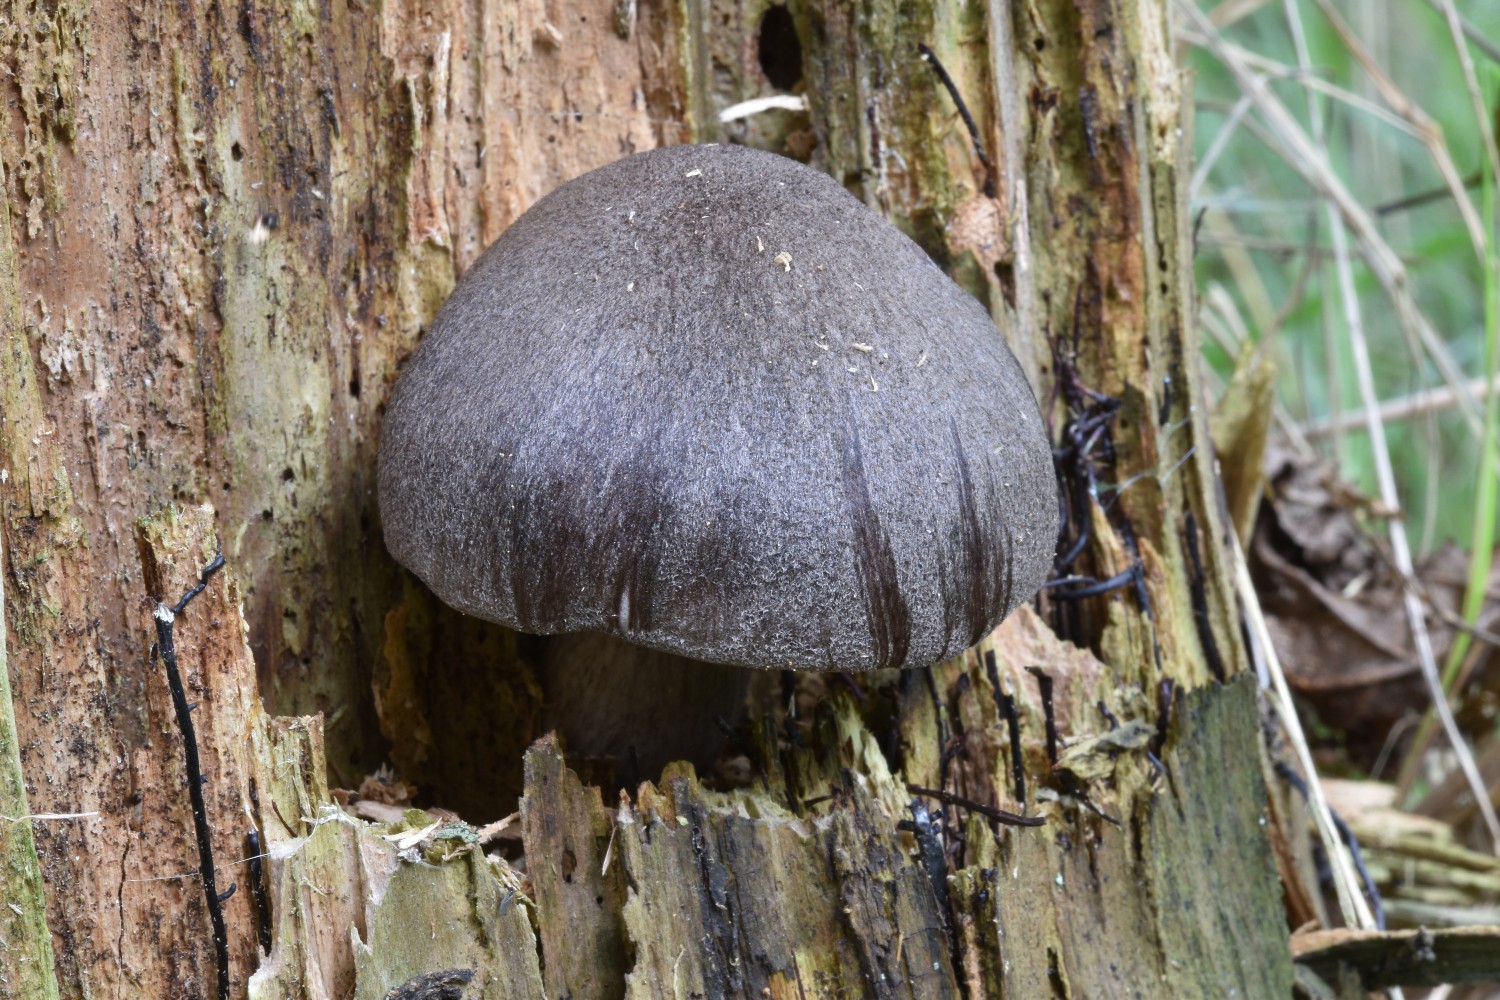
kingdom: Fungi
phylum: Basidiomycota
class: Agaricomycetes
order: Agaricales
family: Pluteaceae
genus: Pluteus
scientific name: Pluteus atromarginatus
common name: sortrandet skærmhat
